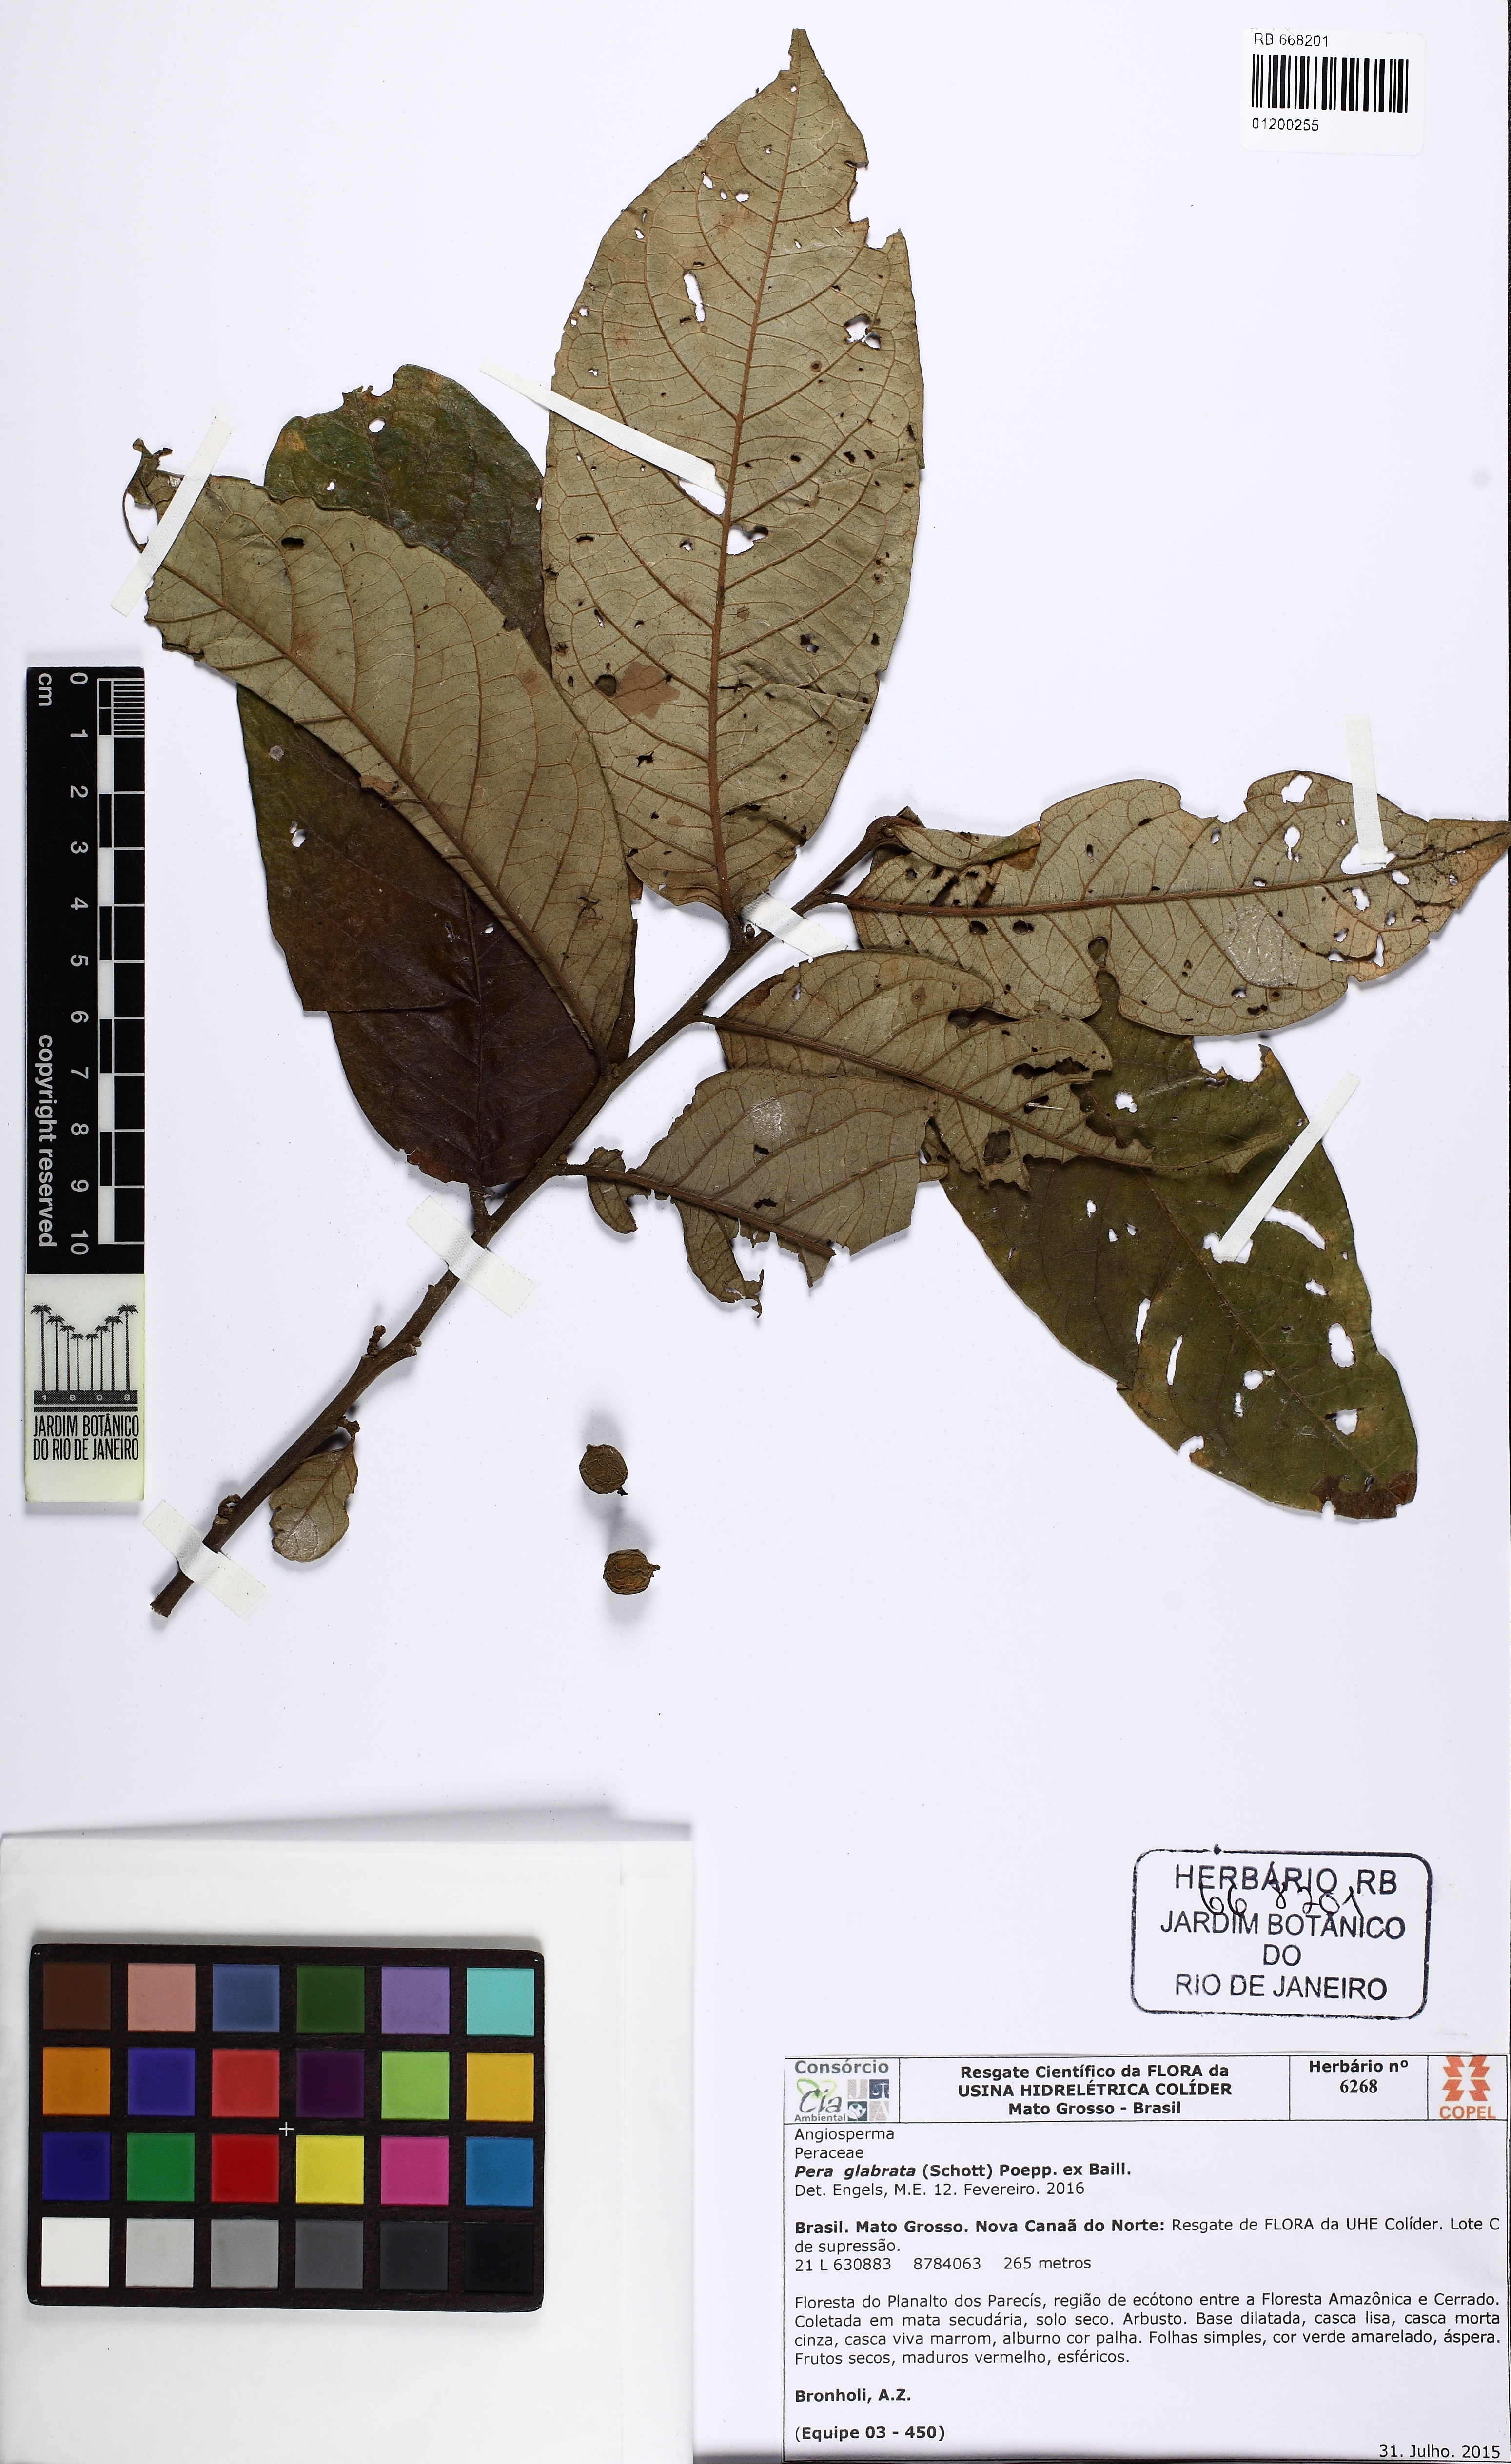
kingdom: Plantae
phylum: Tracheophyta
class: Magnoliopsida
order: Malpighiales
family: Peraceae
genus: Pera
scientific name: Pera eiteniorum
